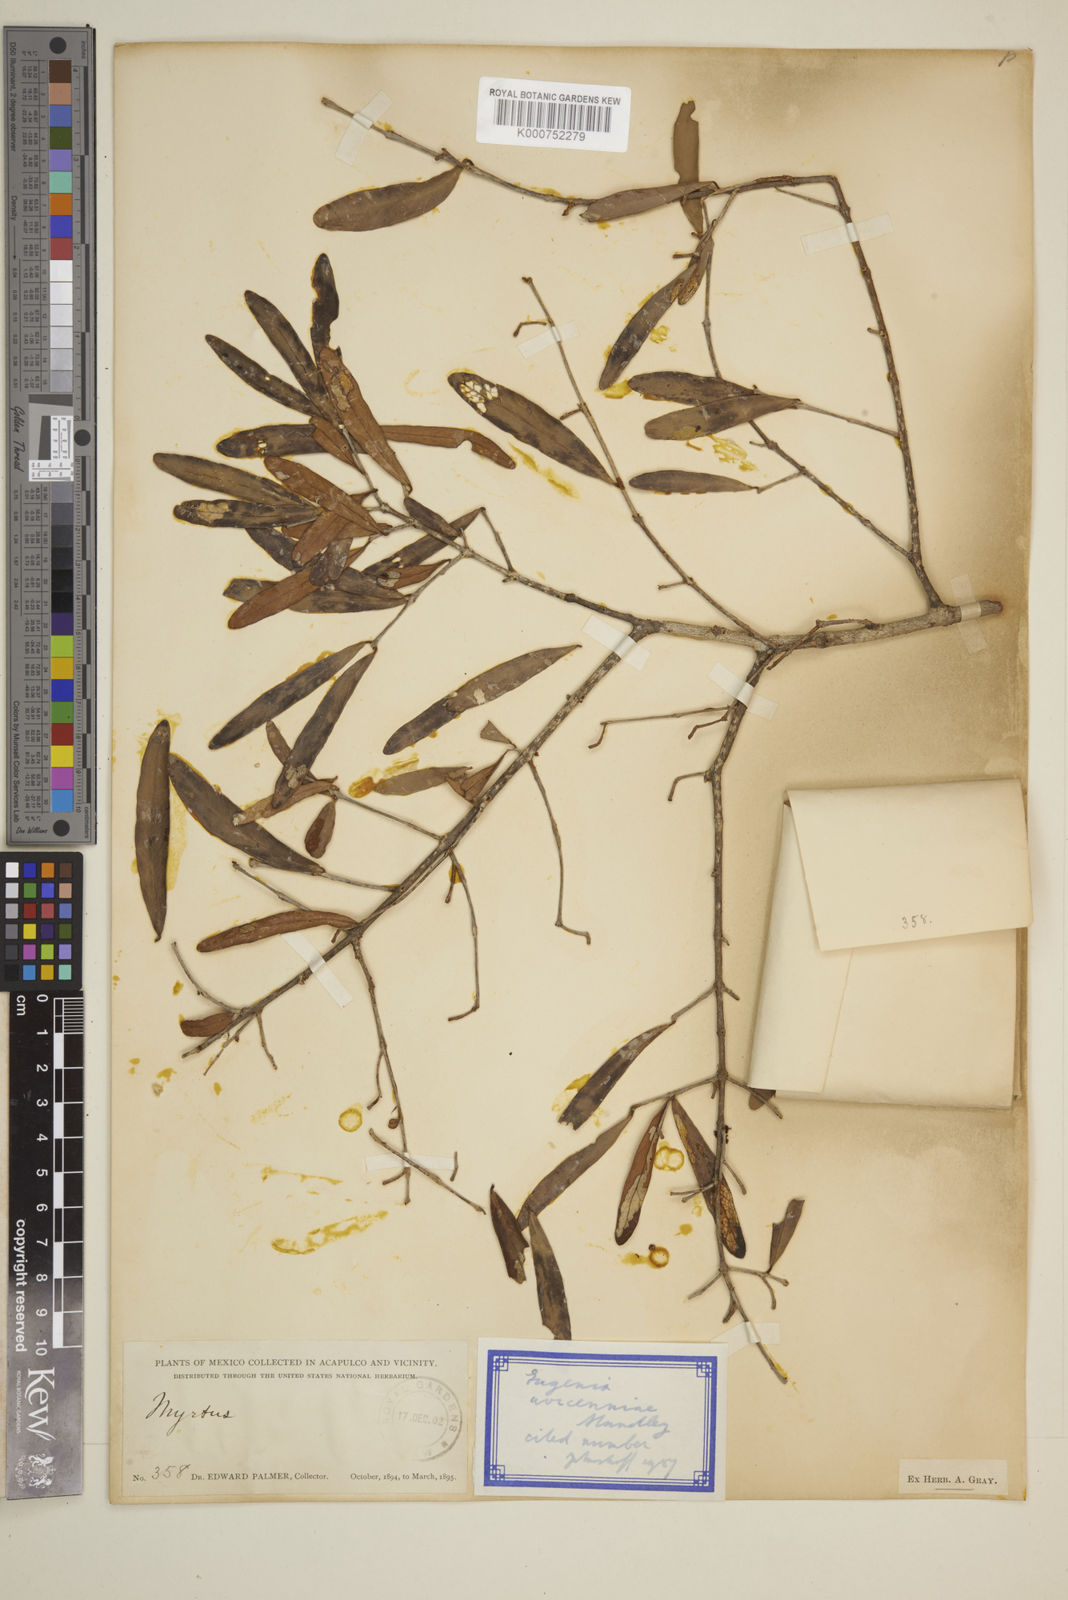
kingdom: Plantae
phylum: Tracheophyta
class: Magnoliopsida
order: Myrtales
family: Myrtaceae
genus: Eugenia
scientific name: Eugenia avicenniae
